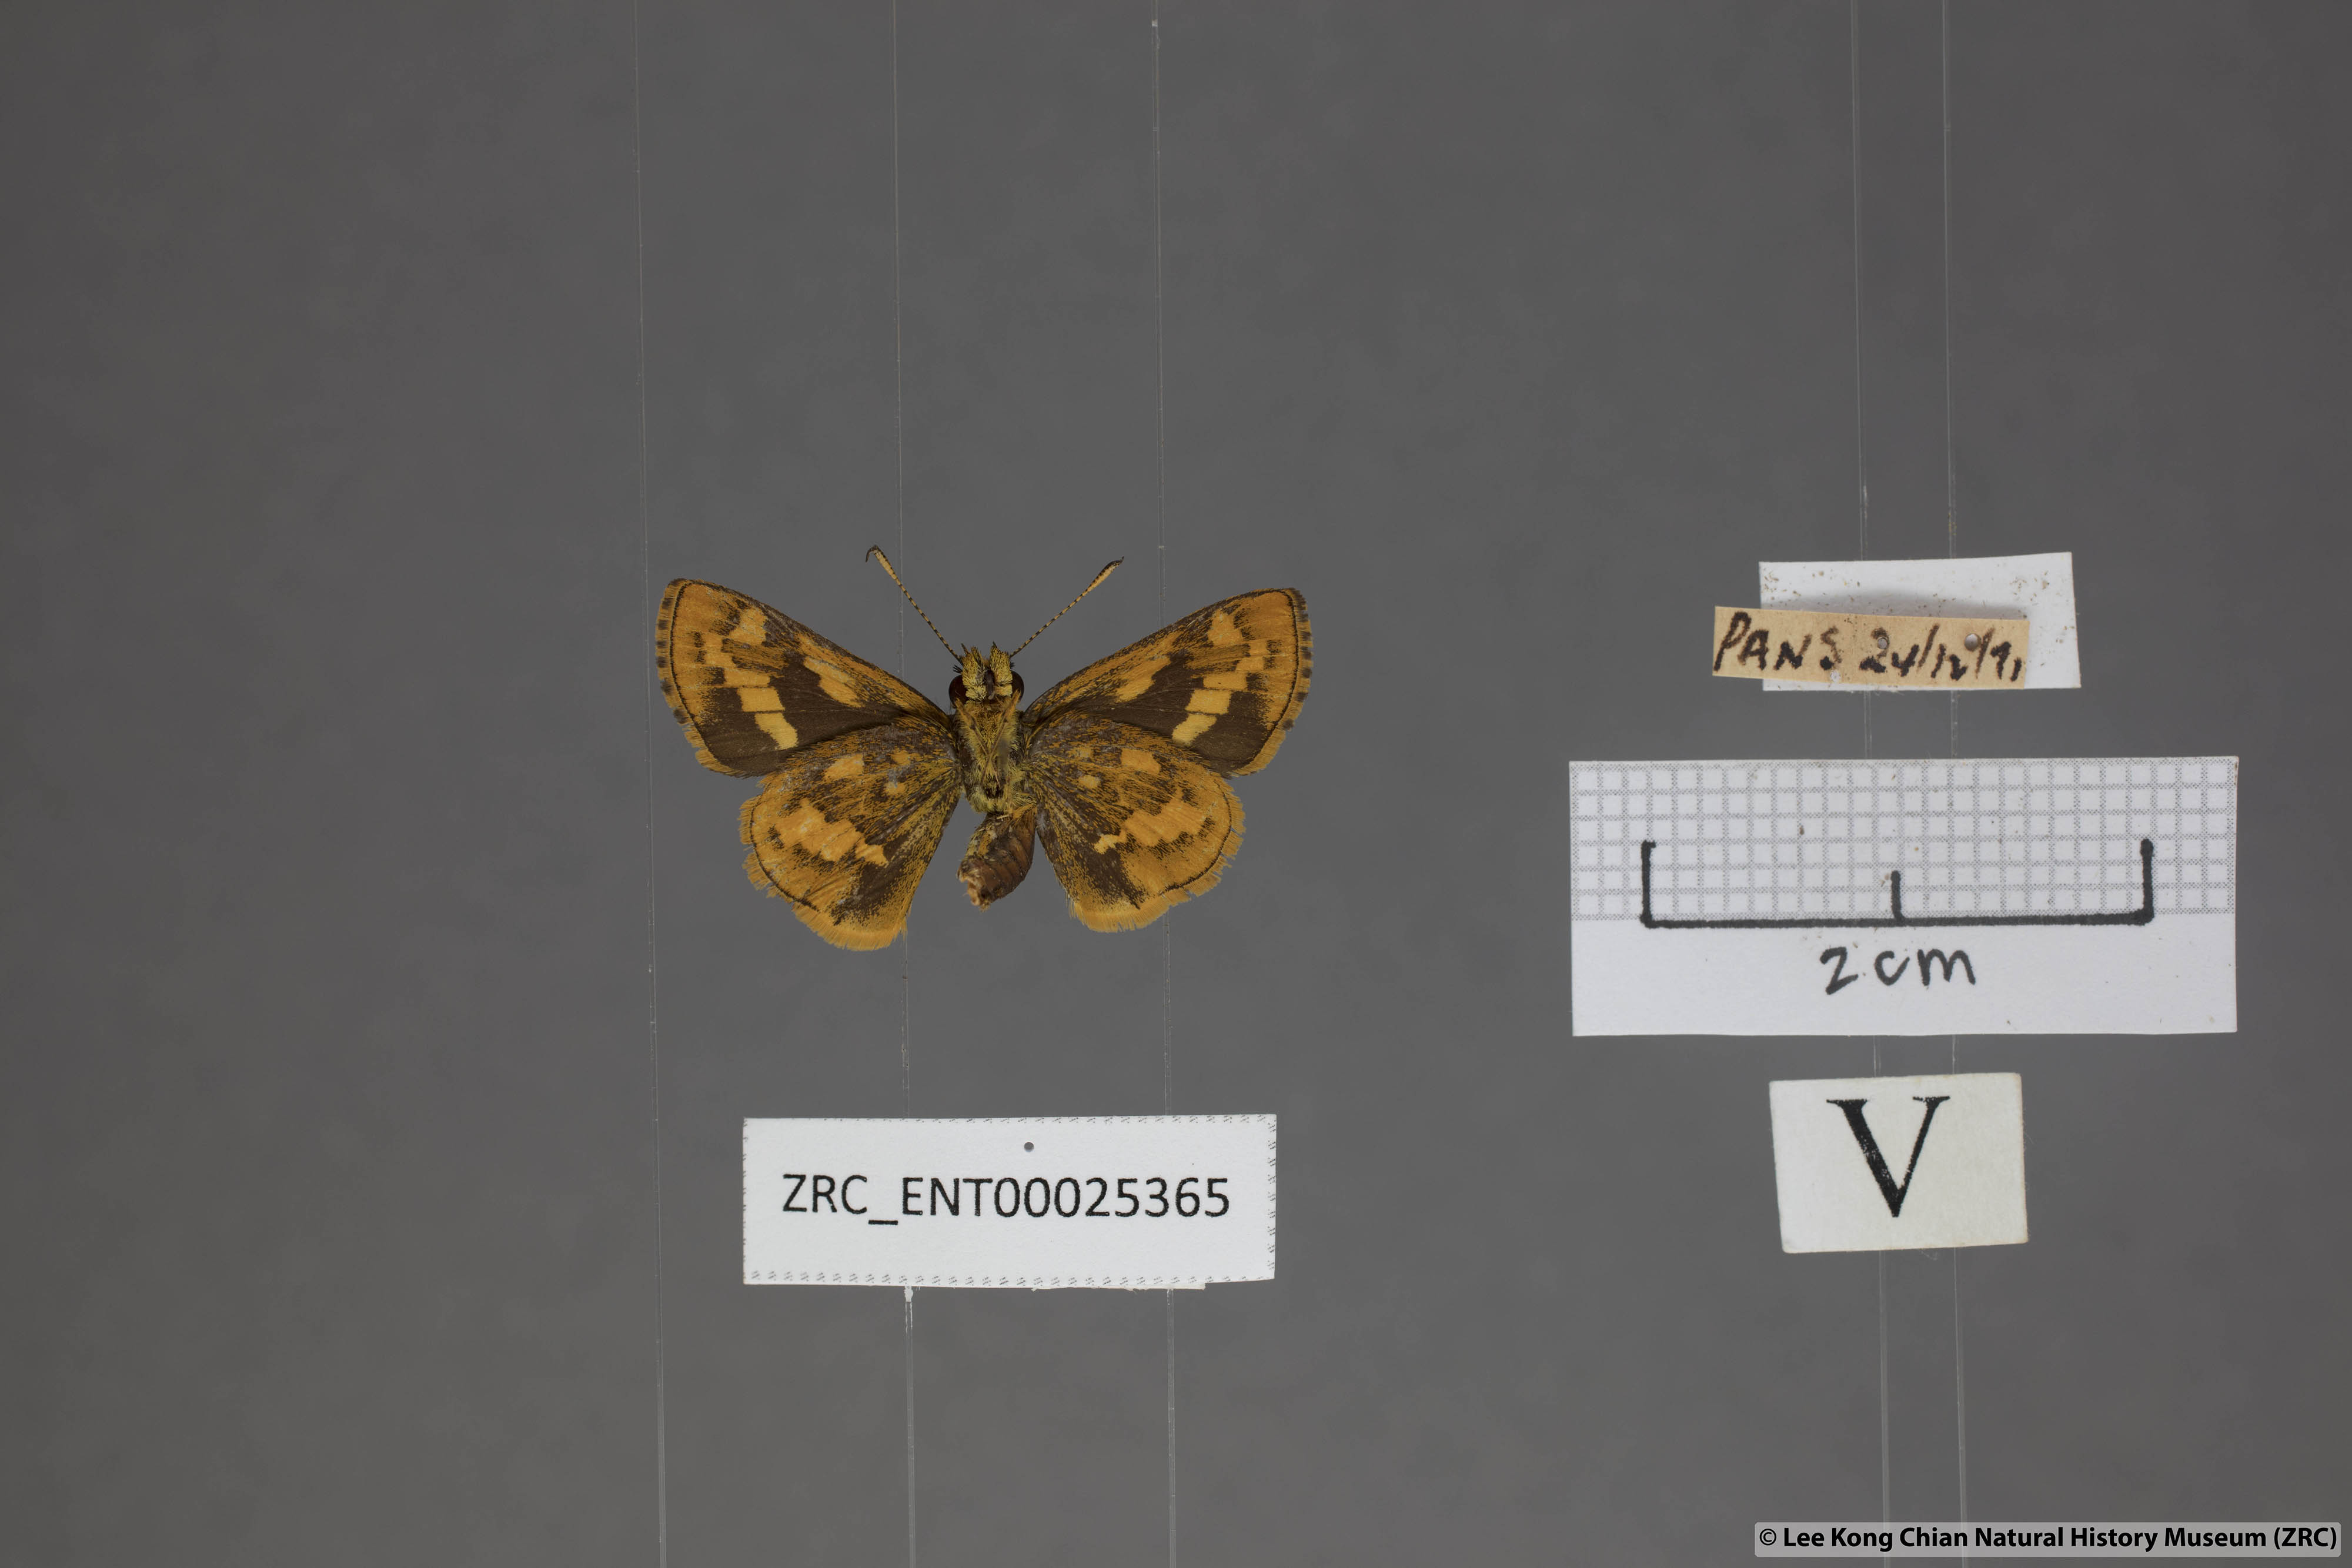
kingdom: Animalia
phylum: Arthropoda
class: Insecta
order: Lepidoptera
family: Hesperiidae
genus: Potanthus
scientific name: Potanthus ganda
